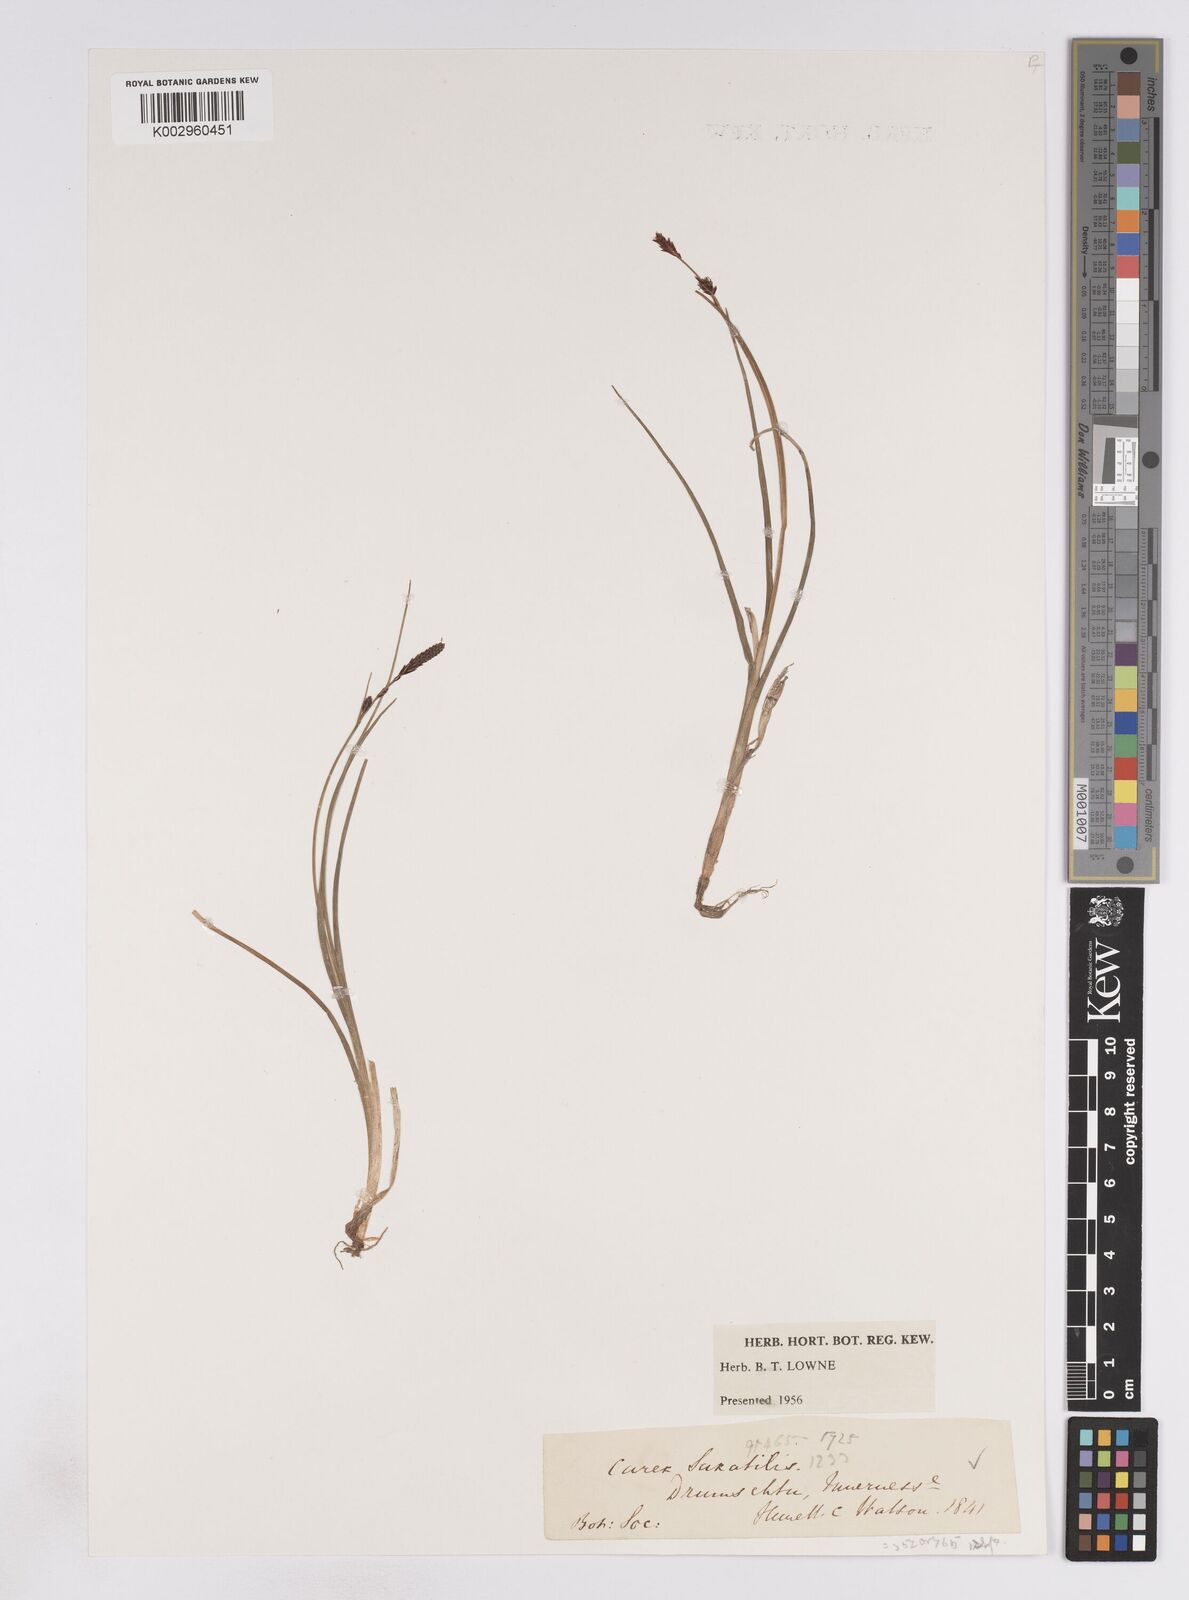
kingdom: Plantae
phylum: Tracheophyta
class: Liliopsida
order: Poales
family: Cyperaceae
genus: Carex
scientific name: Carex saxatilis
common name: Russet sedge
